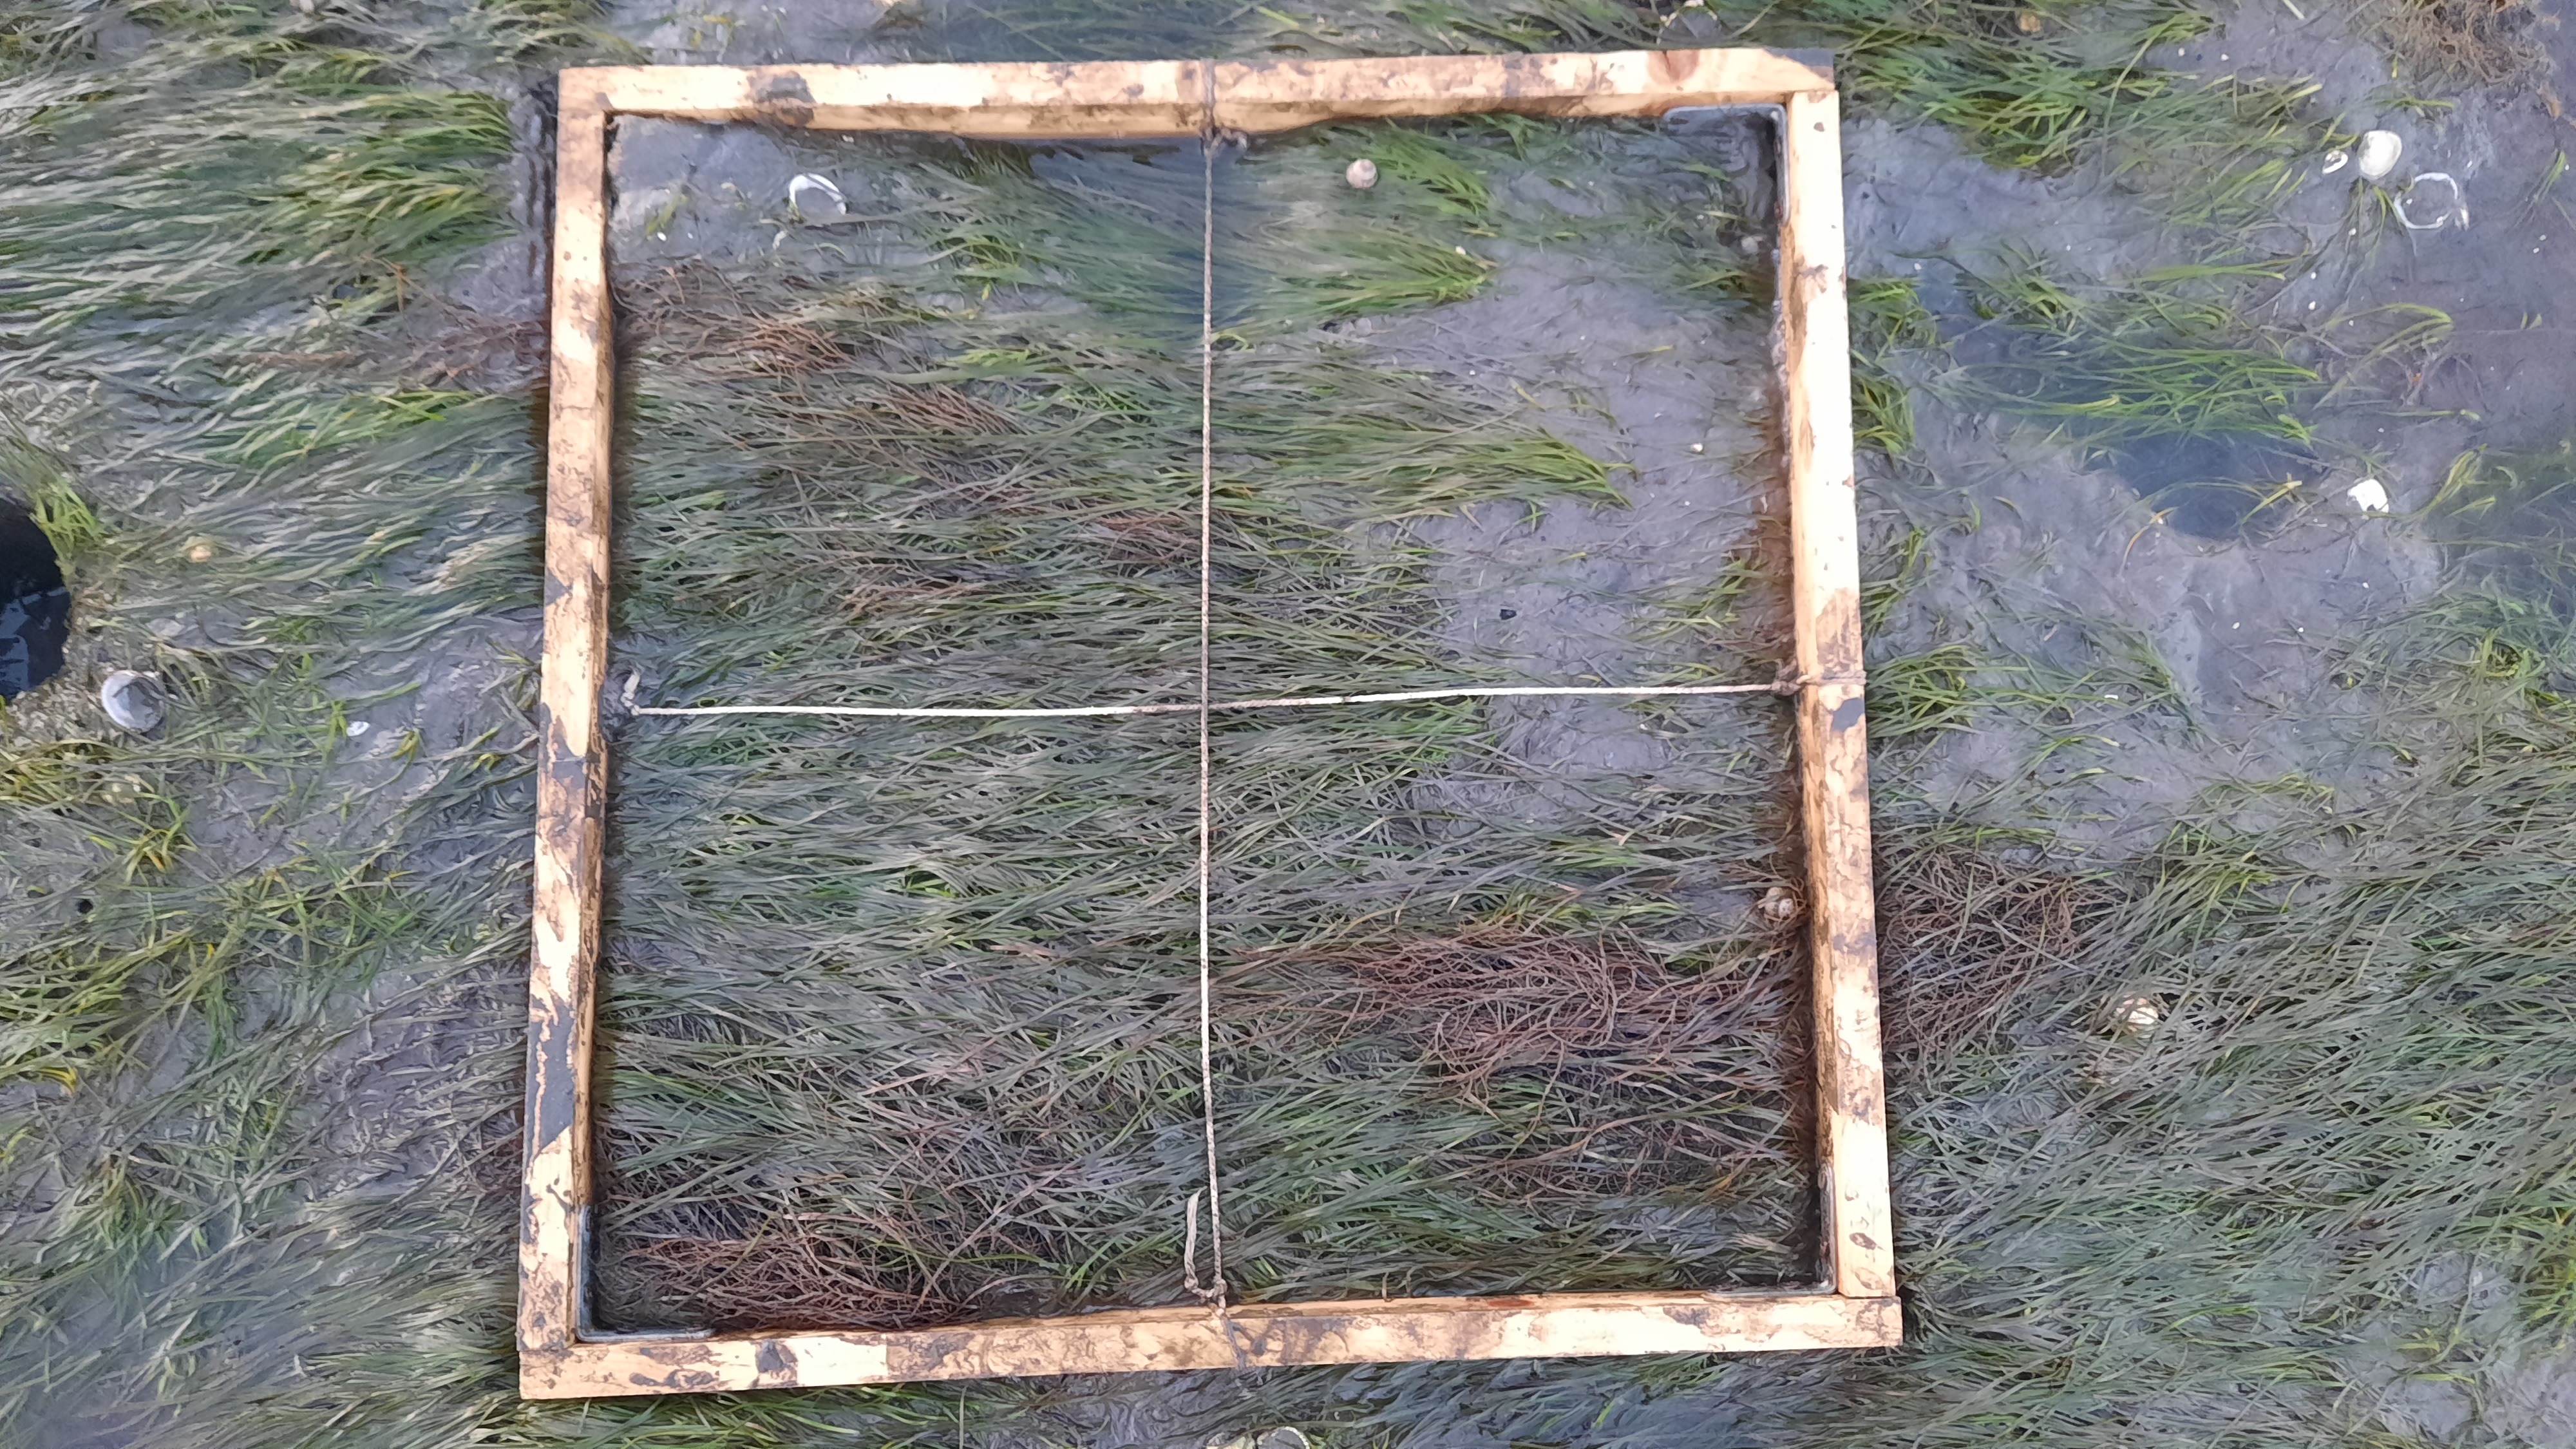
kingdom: Plantae
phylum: Rhodophyta
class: Florideophyceae
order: Gracilariales
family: Gracilariaceae
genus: Gracilaria
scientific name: Gracilaria vermiculophylla
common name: Algae
